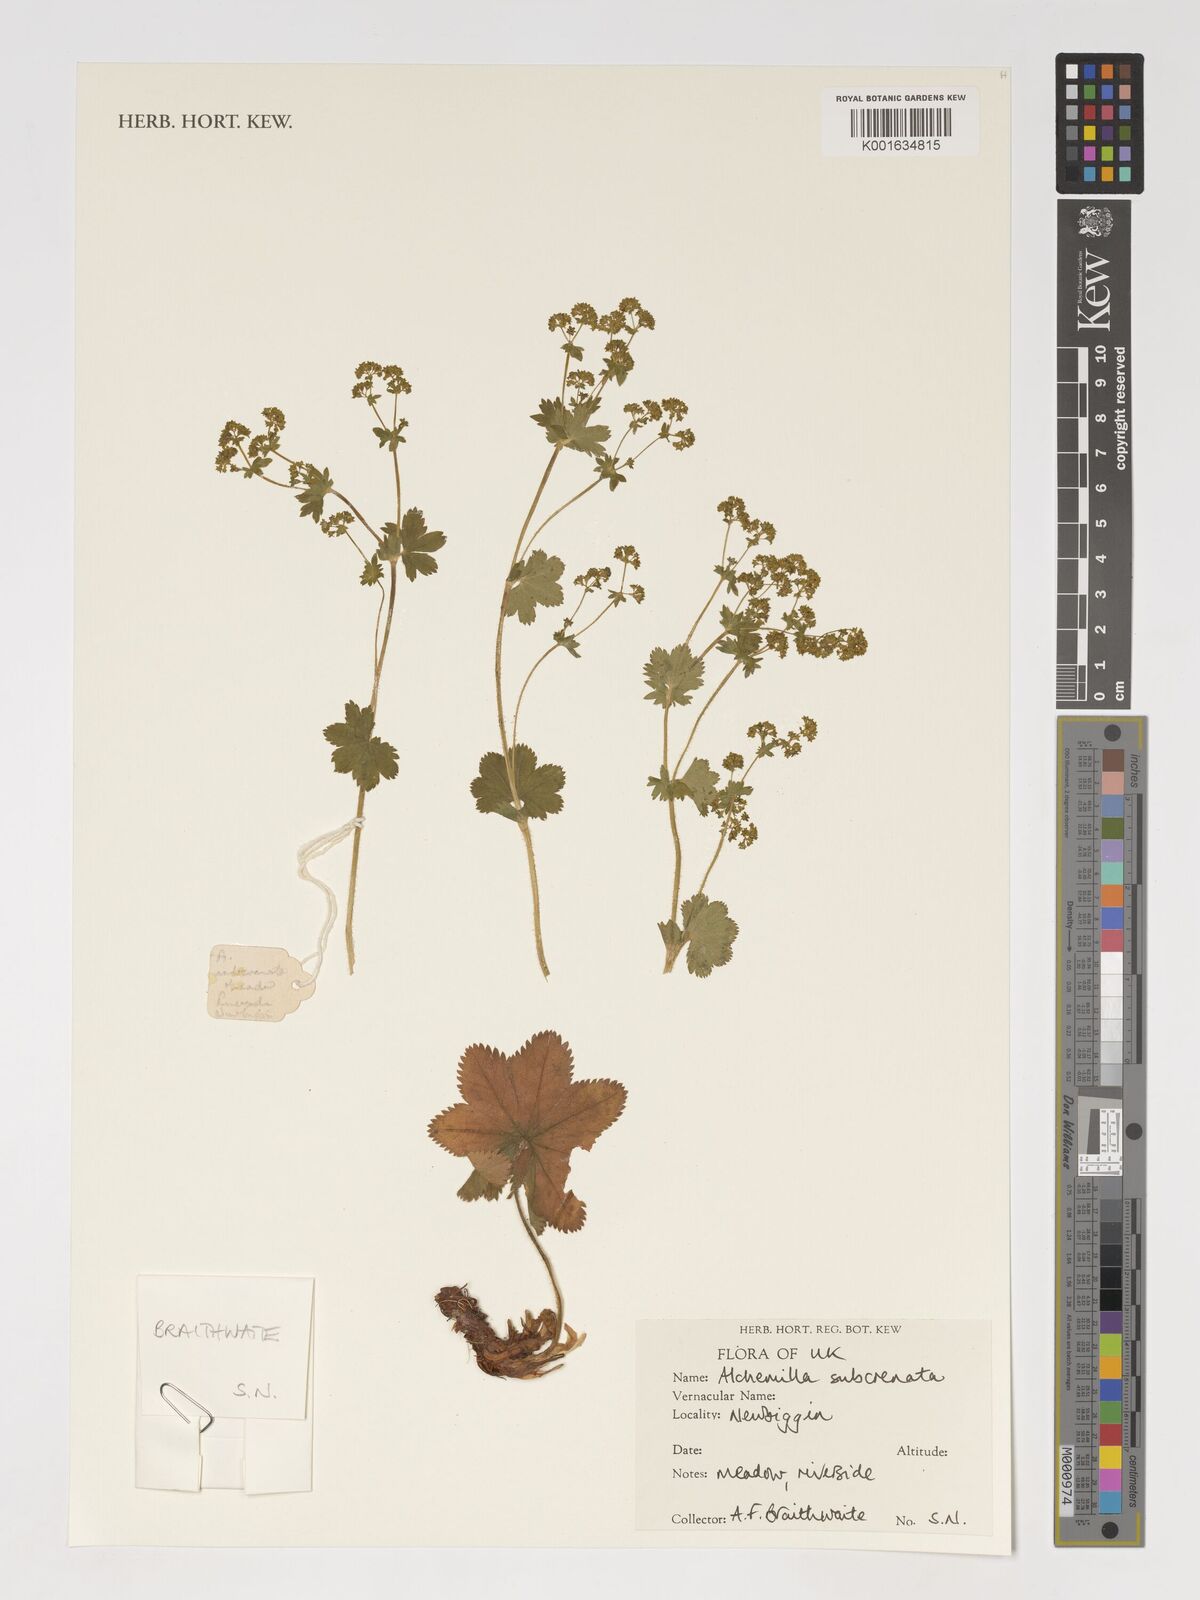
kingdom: Plantae
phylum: Tracheophyta
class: Magnoliopsida
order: Rosales
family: Rosaceae
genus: Alchemilla
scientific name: Alchemilla subcrenata
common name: Broadtooth lady's mantle
